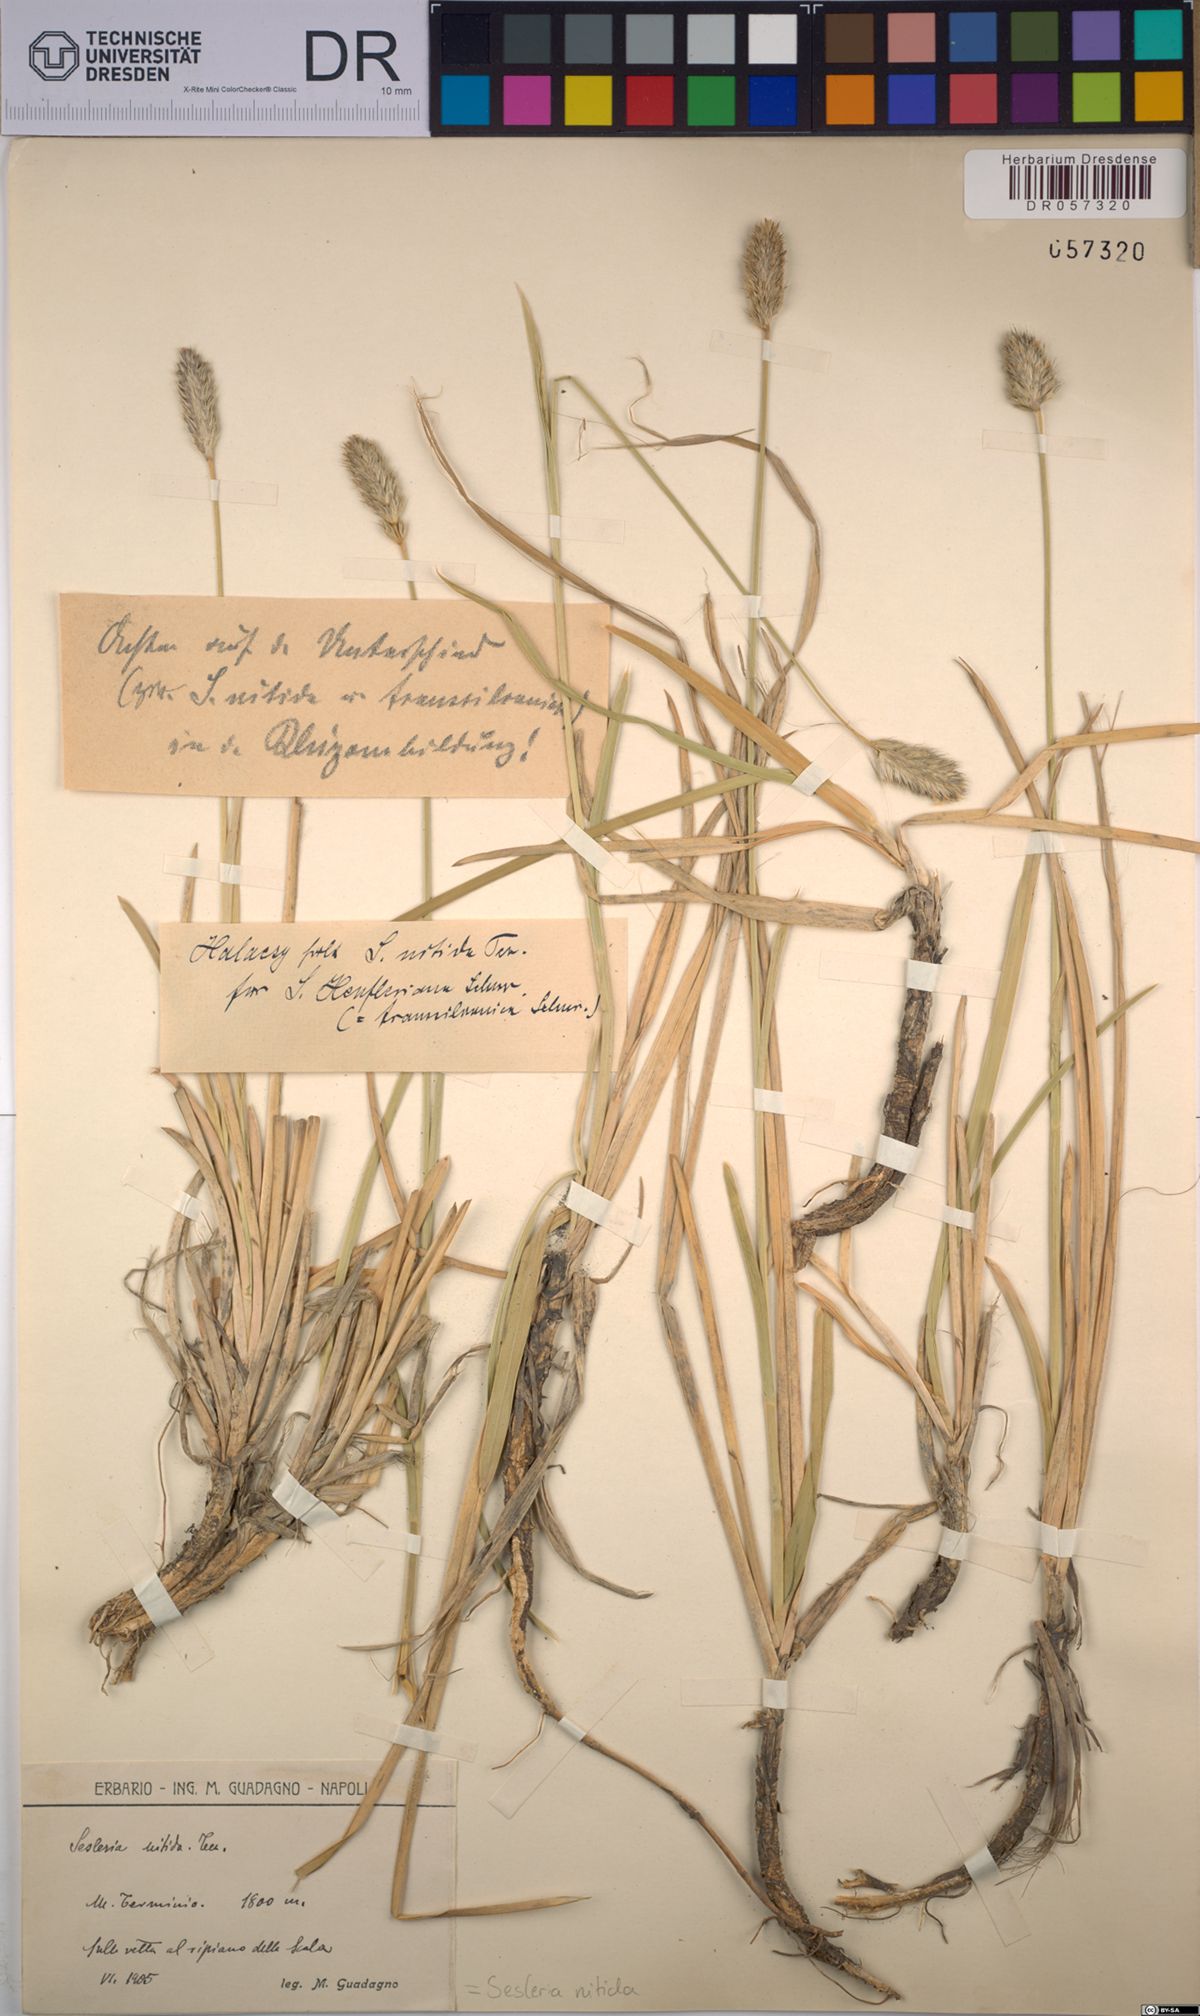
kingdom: Plantae
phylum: Tracheophyta
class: Liliopsida
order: Poales
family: Poaceae
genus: Sesleria
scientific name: Sesleria nitida
